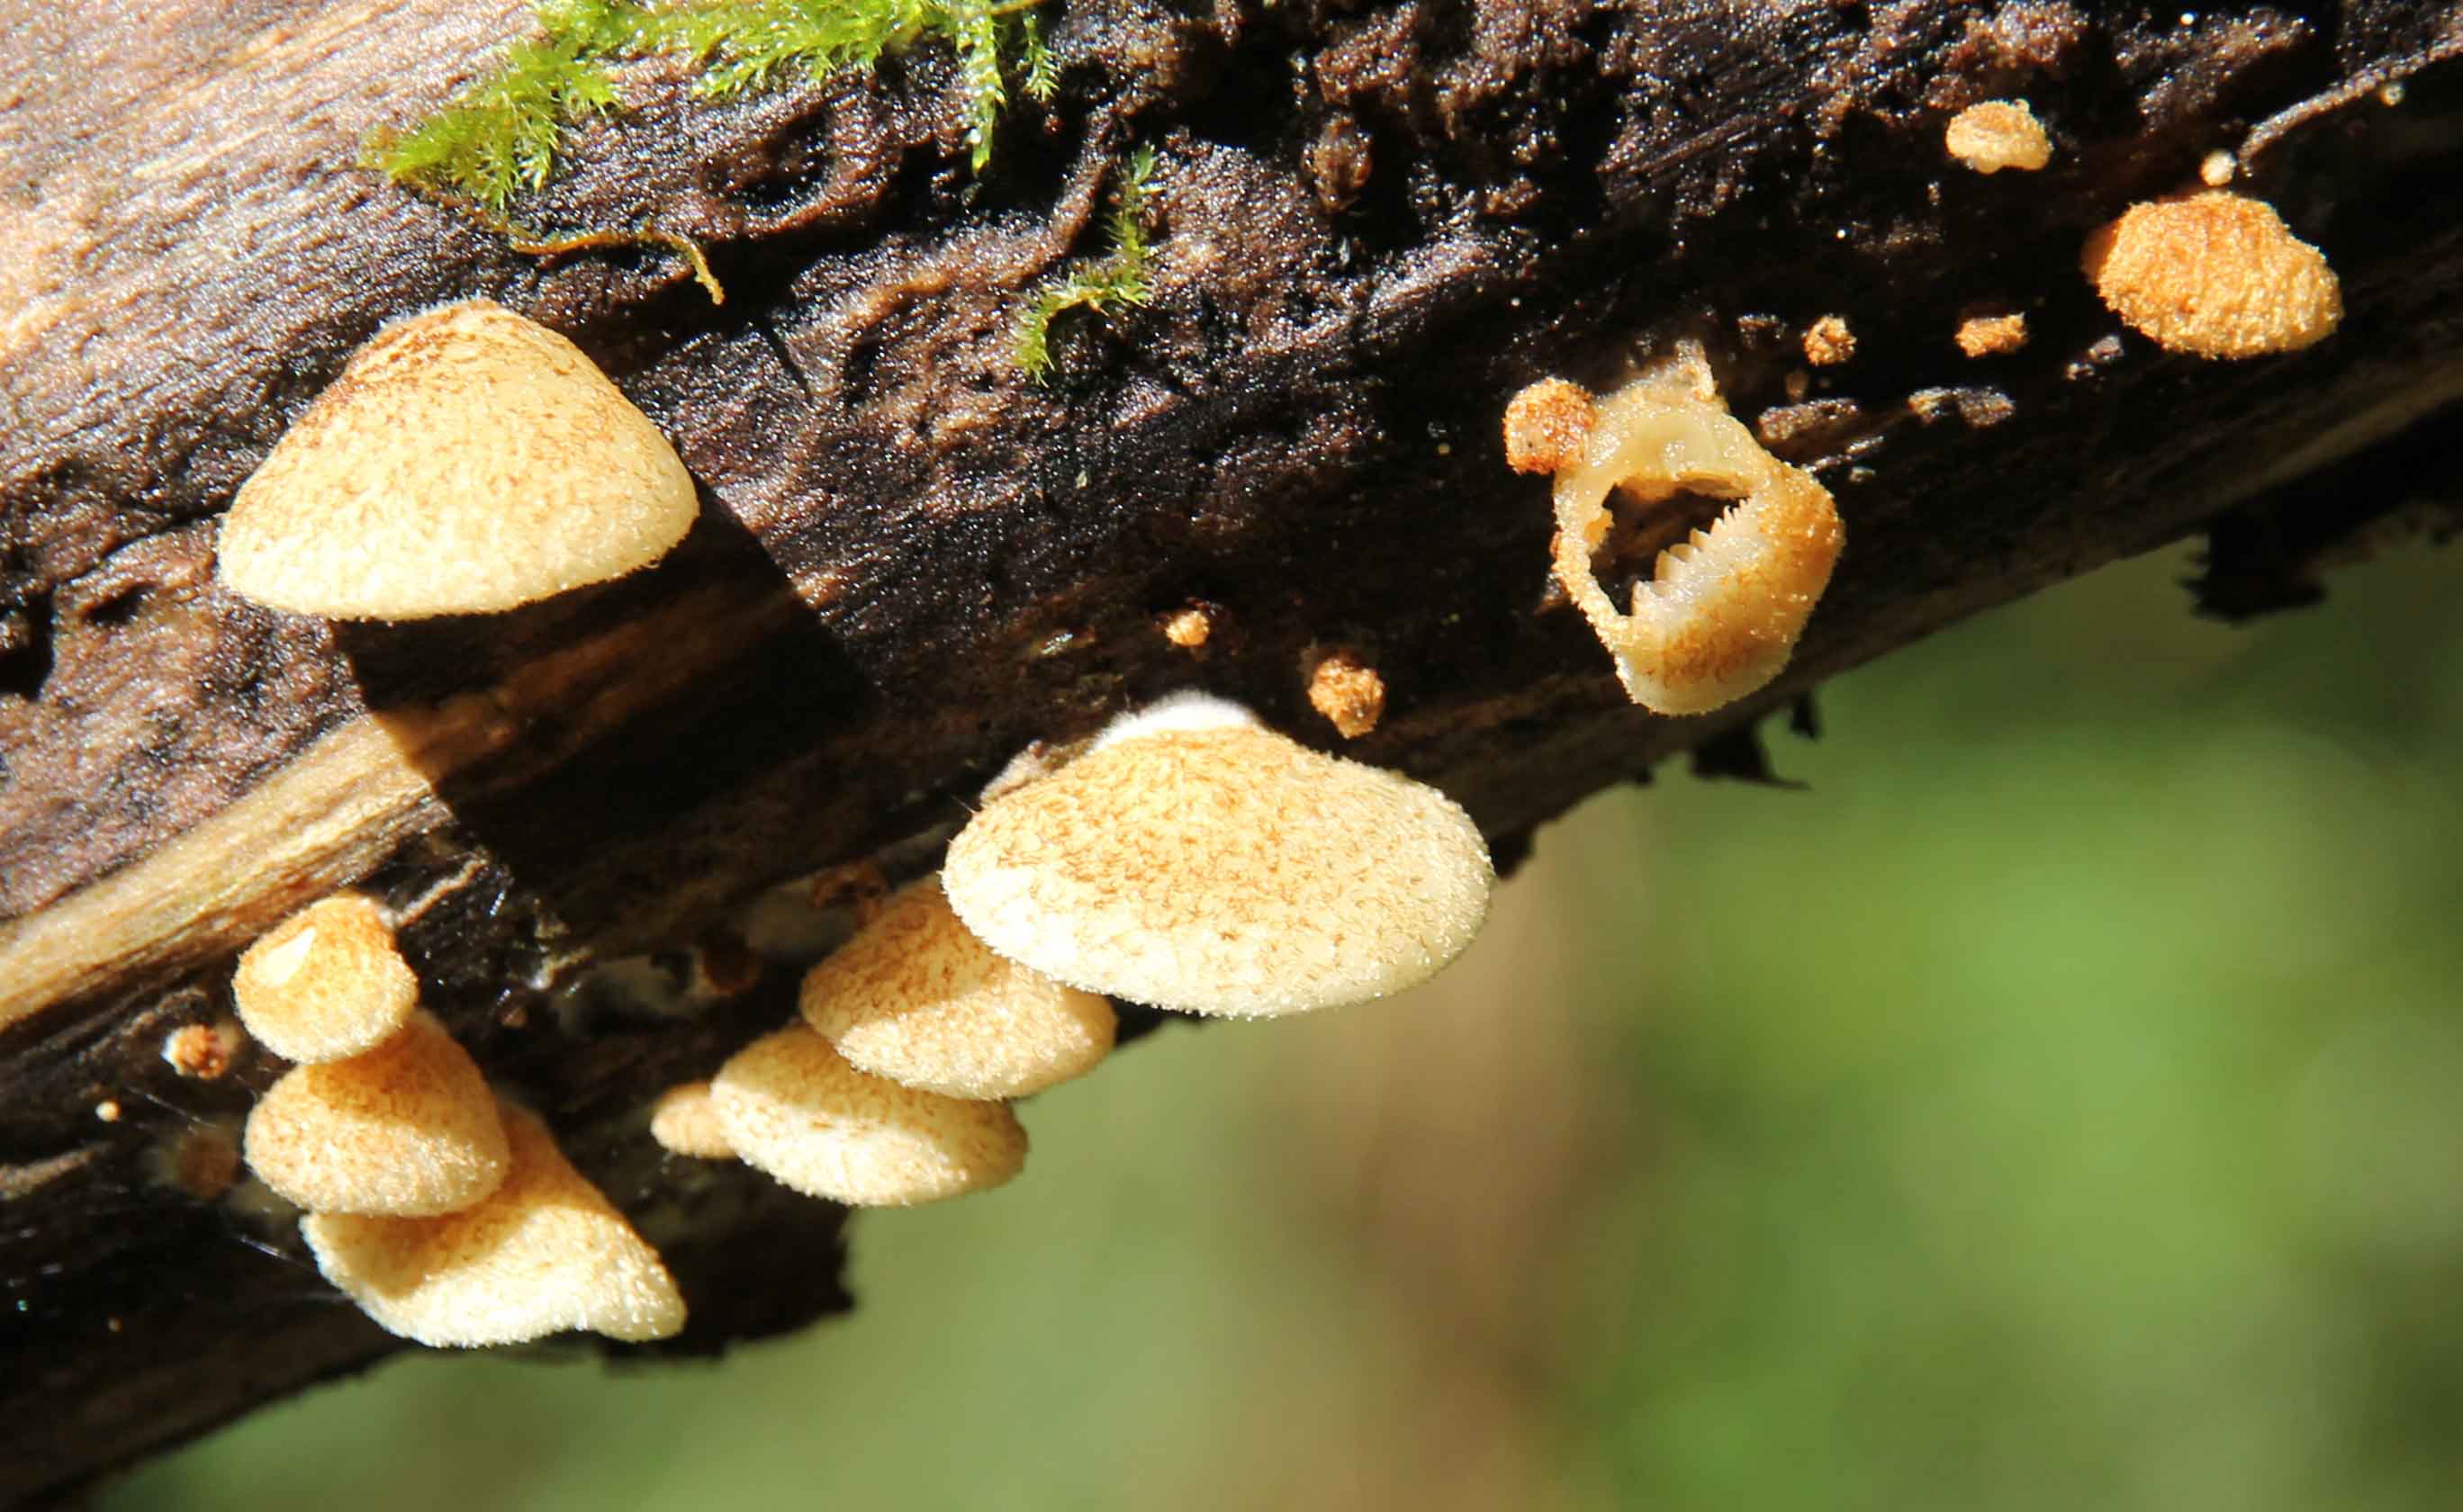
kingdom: Fungi
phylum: Basidiomycota
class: Agaricomycetes
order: Agaricales
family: Crepidotaceae
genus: Crepidotus
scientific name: Crepidotus calolepis
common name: småskællet muslingesvamp
